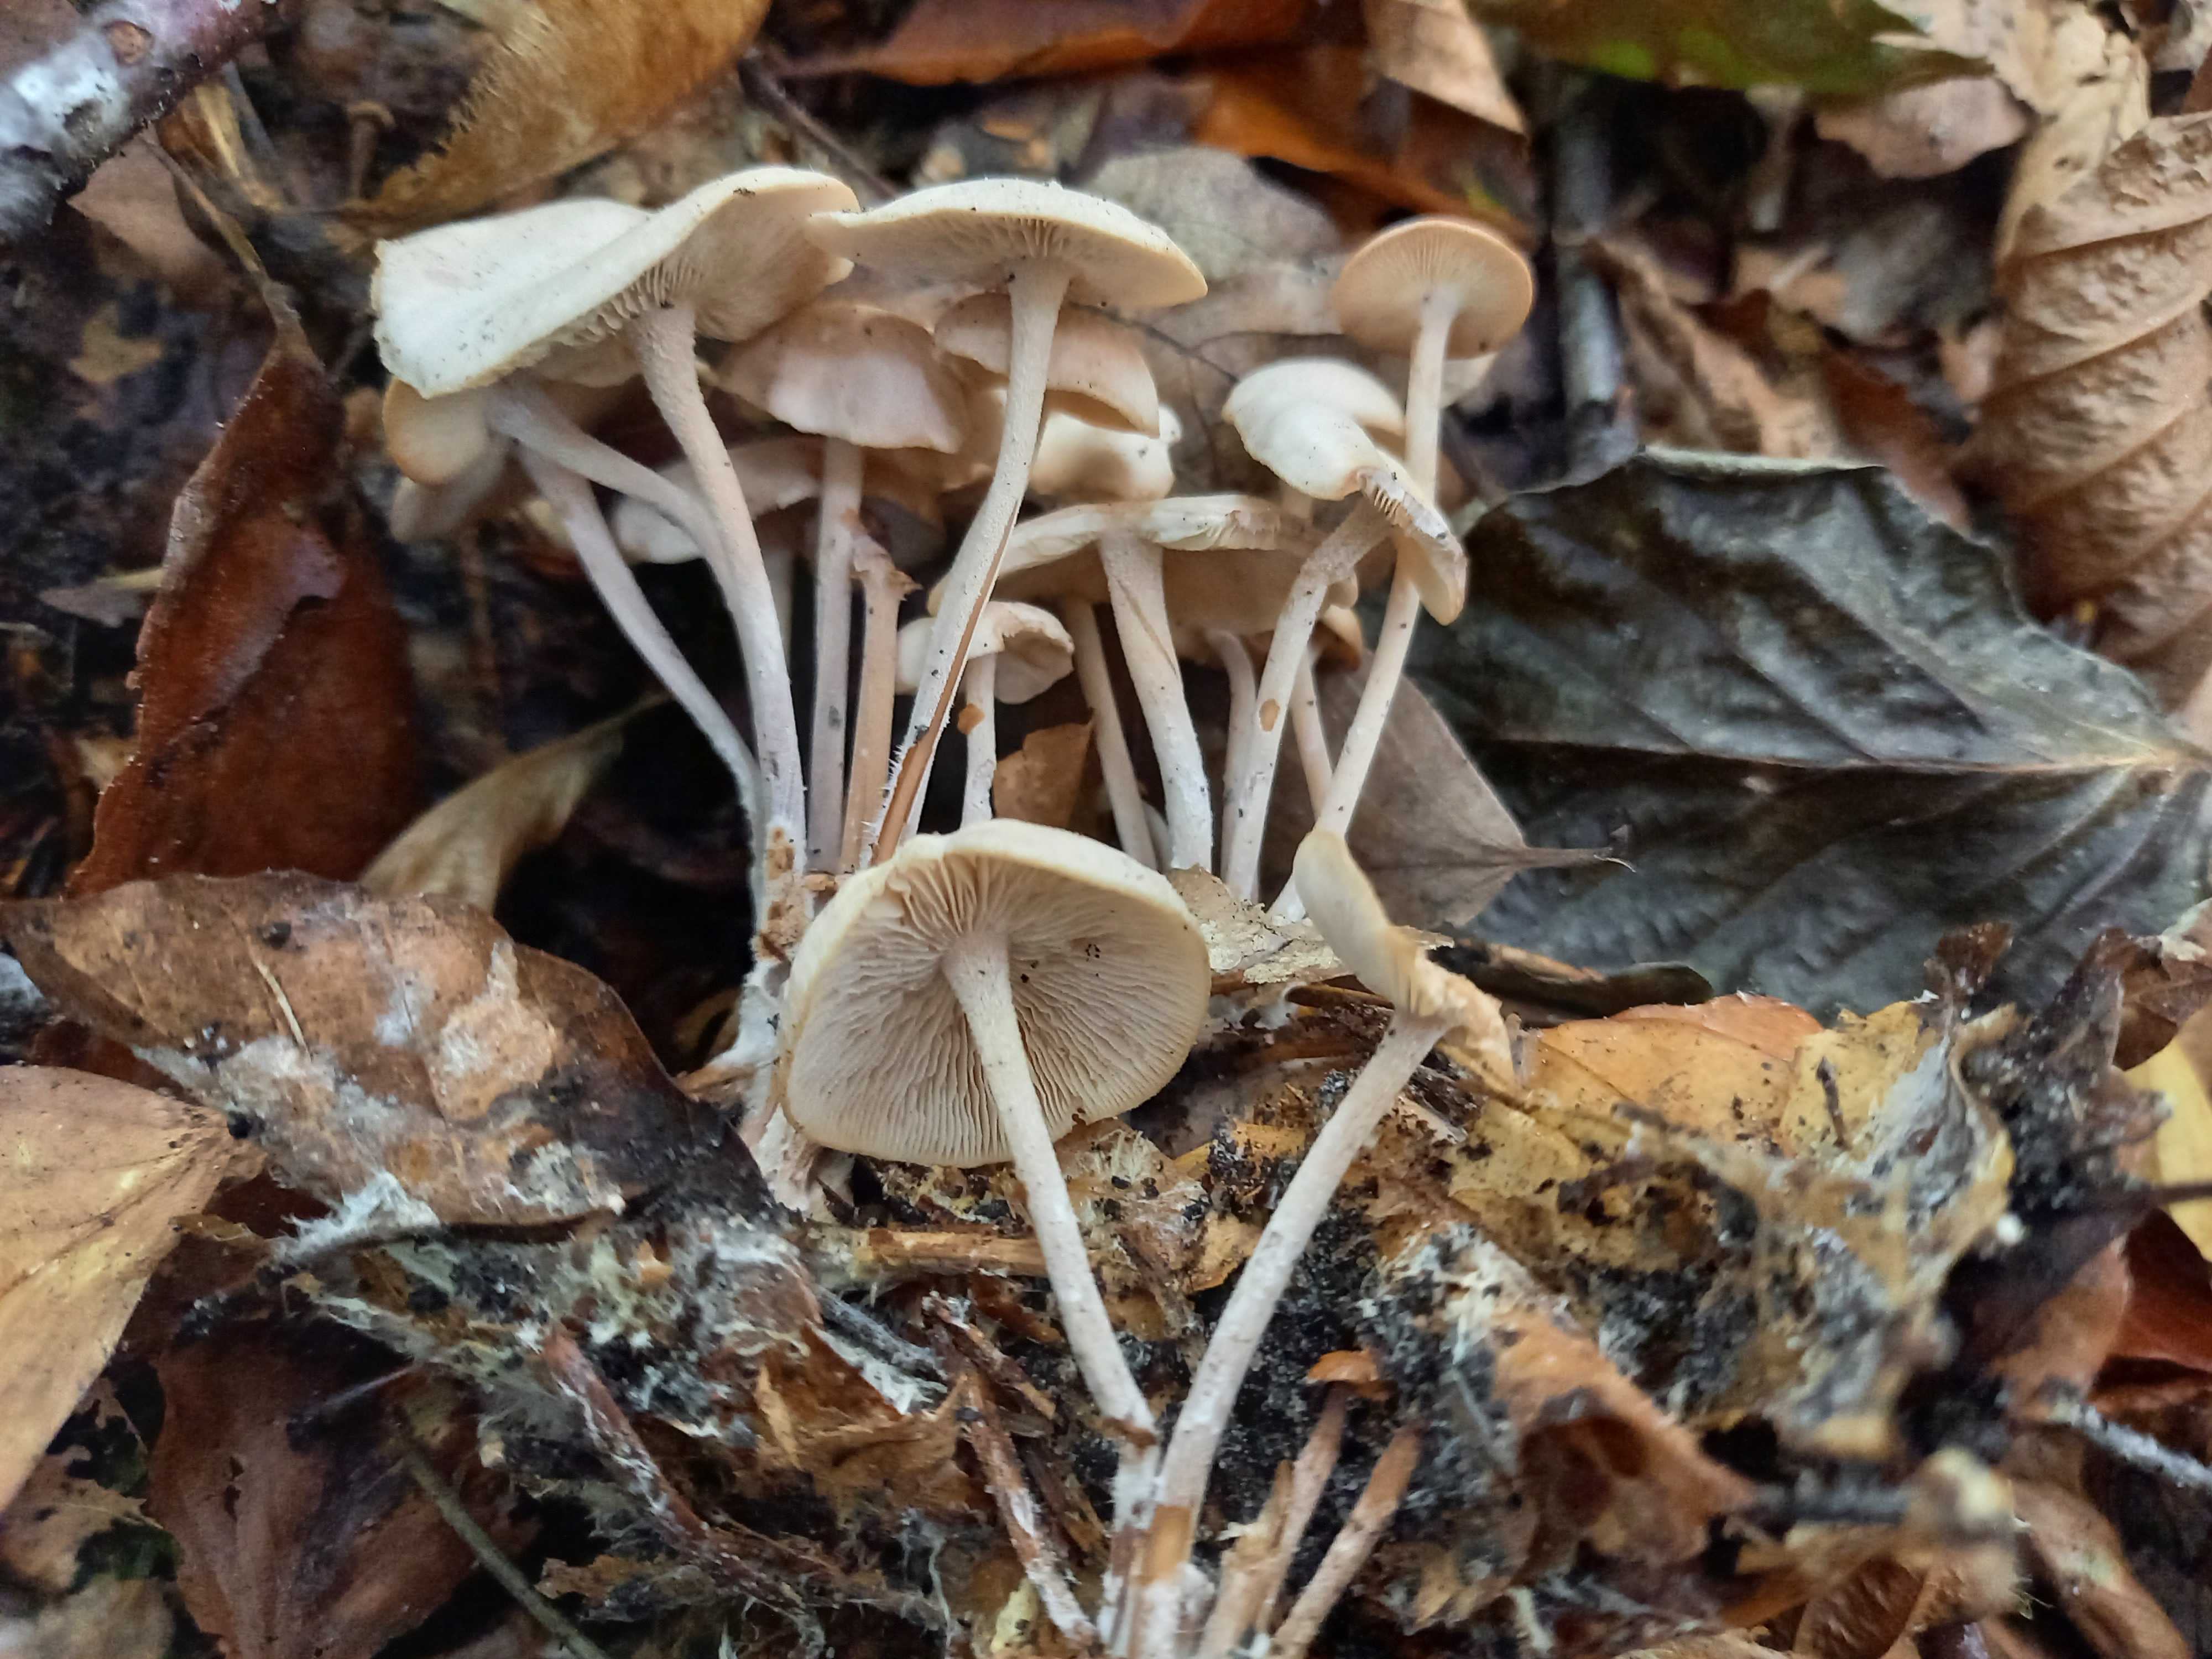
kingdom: Fungi
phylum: Basidiomycota
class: Agaricomycetes
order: Agaricales
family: Omphalotaceae
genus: Collybiopsis
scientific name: Collybiopsis confluens
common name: knippe-fladhat
